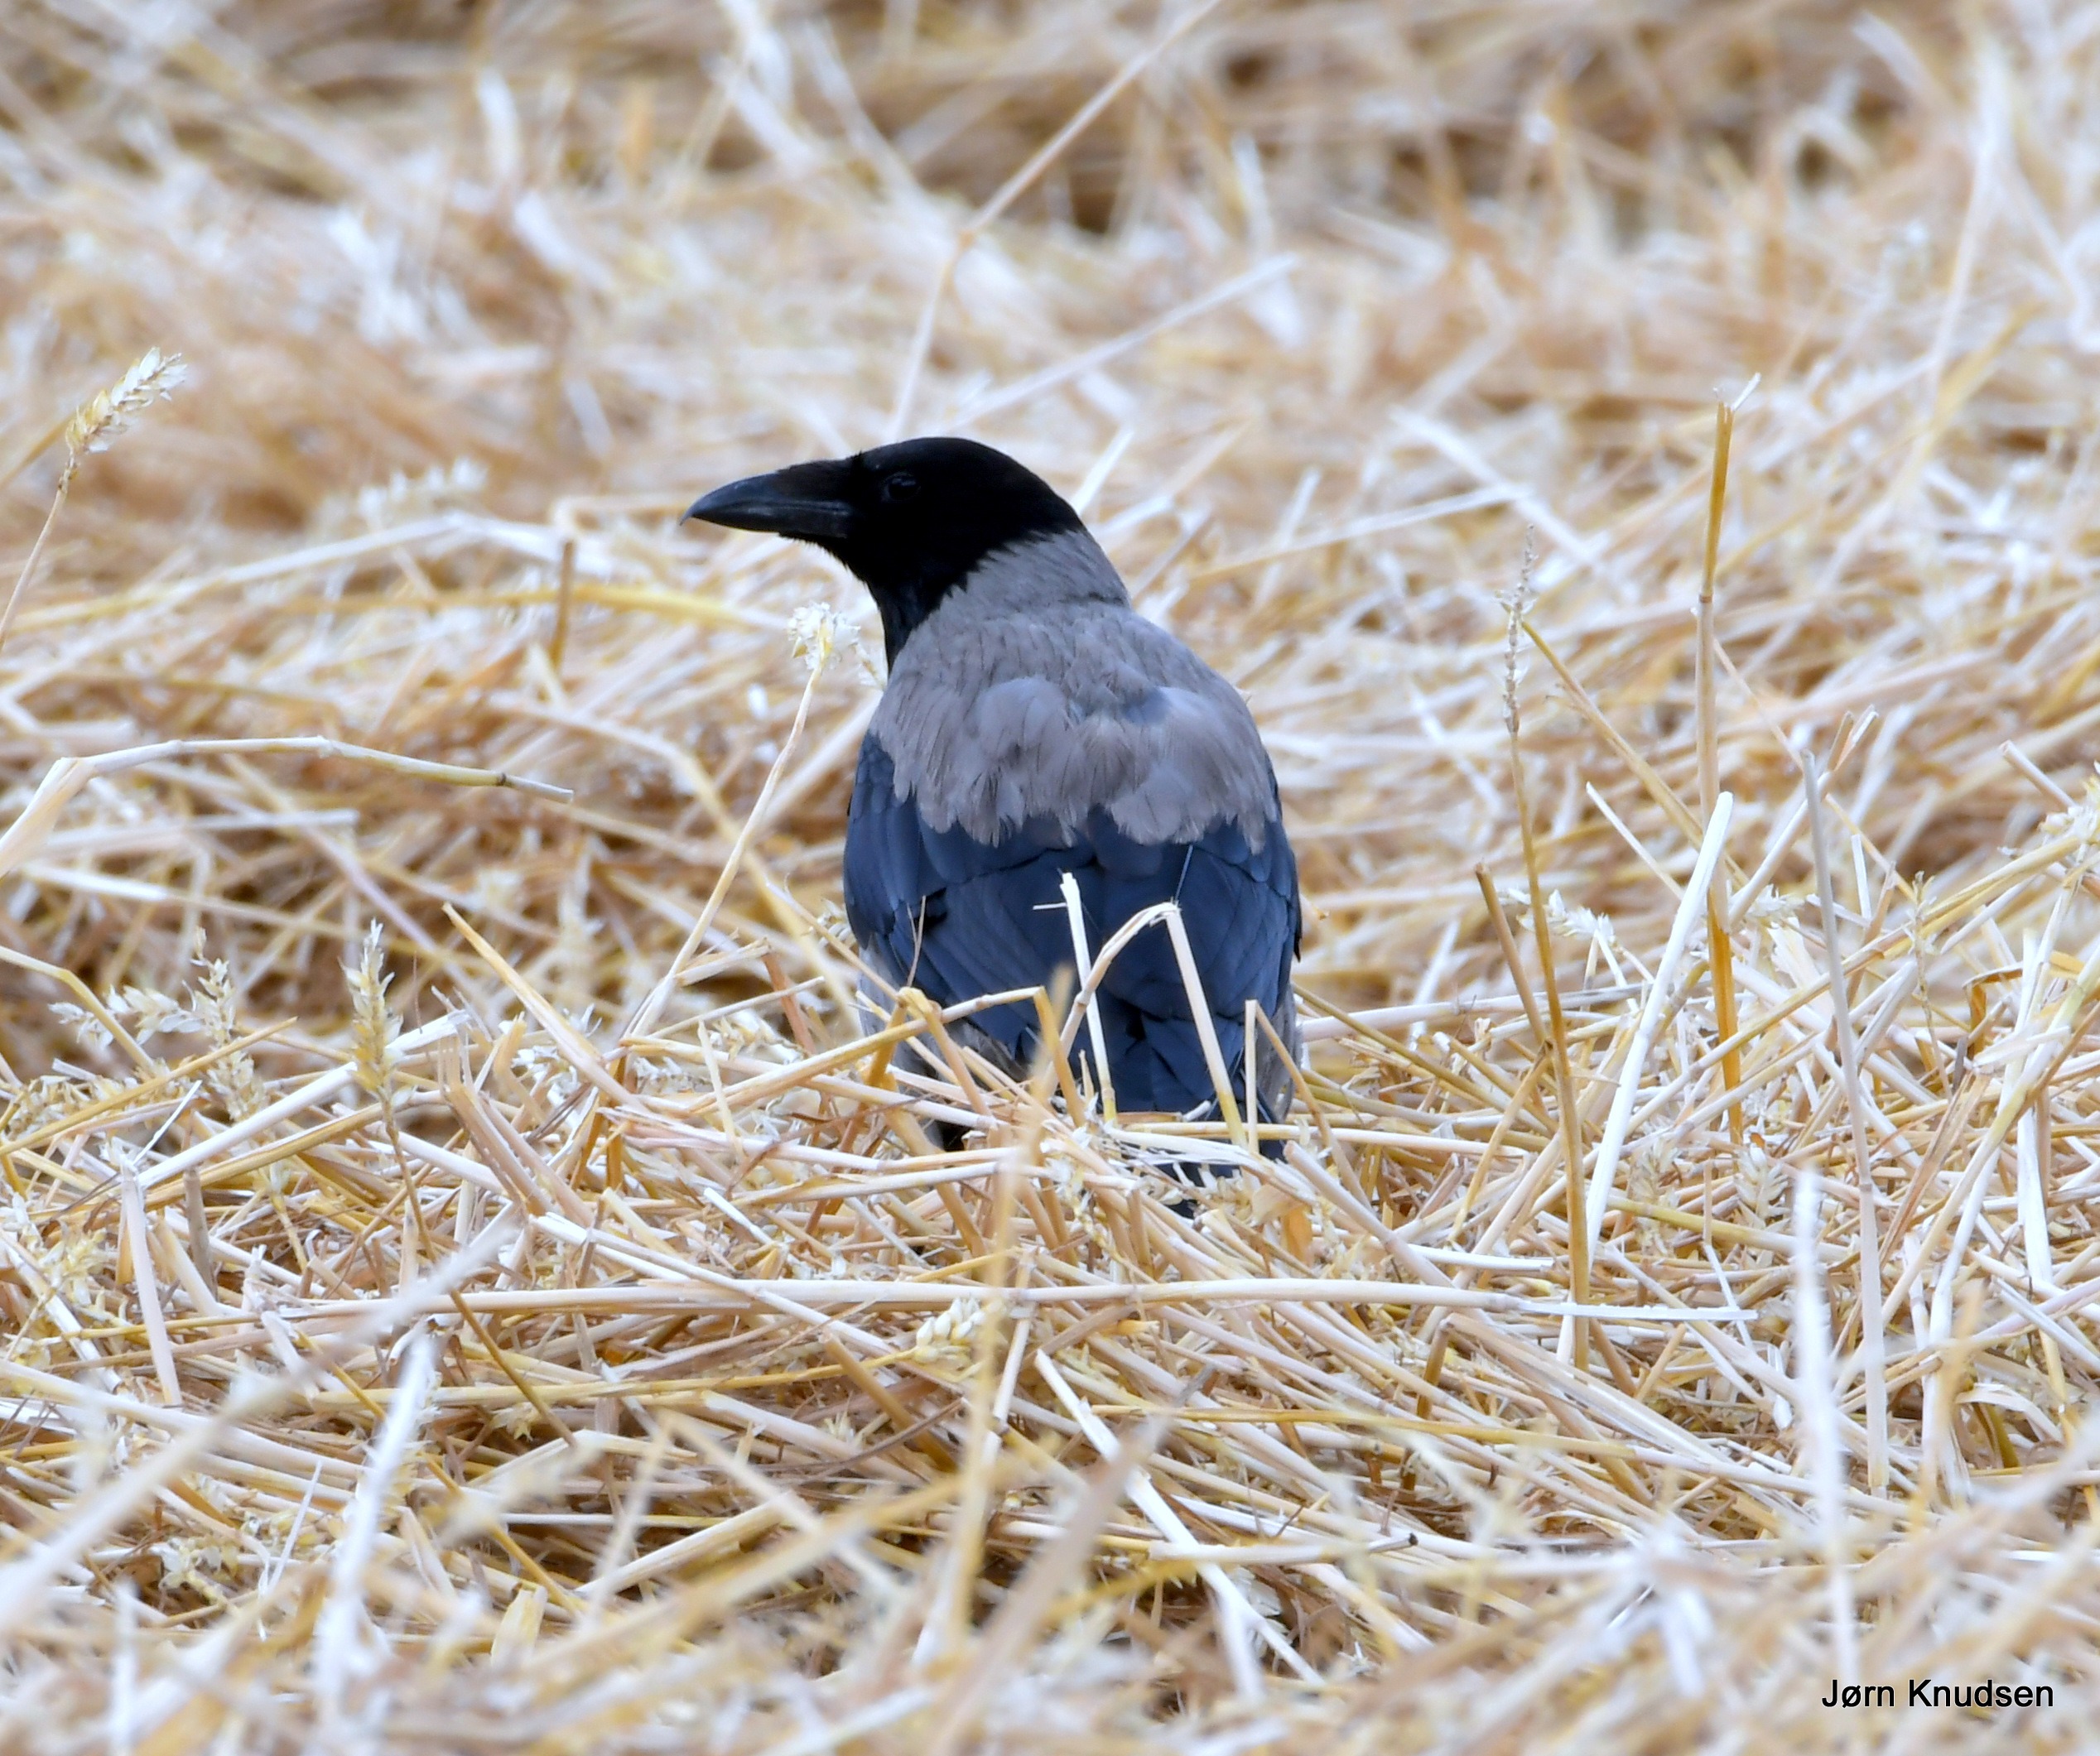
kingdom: Animalia
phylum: Chordata
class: Aves
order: Passeriformes
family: Corvidae
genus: Corvus
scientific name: Corvus cornix
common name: Gråkrage
